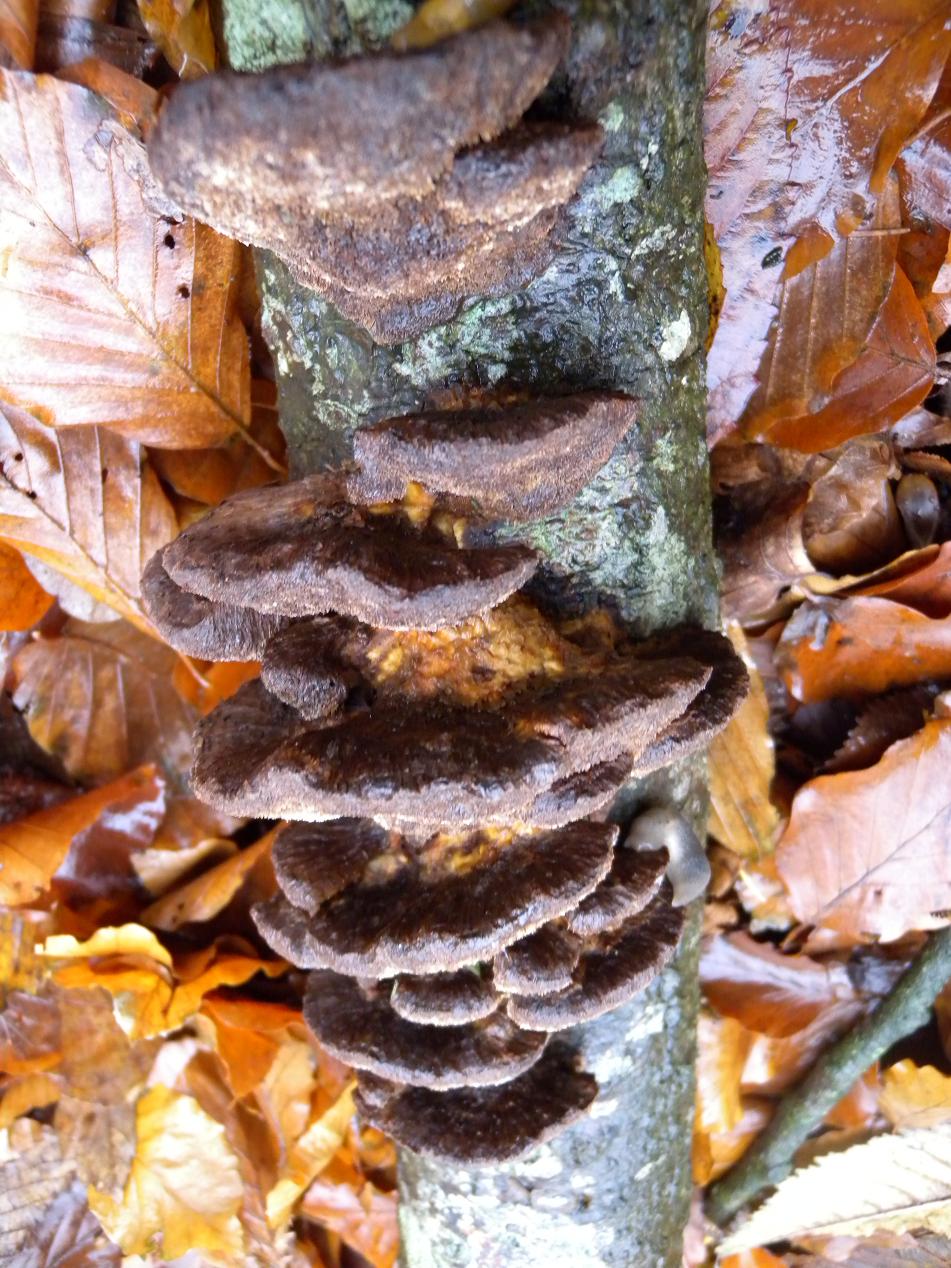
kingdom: Fungi
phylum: Basidiomycota
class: Agaricomycetes
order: Hymenochaetales
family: Hymenochaetaceae
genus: Inocutis
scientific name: Inocutis rheades
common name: ræve-spejlporesvamp
